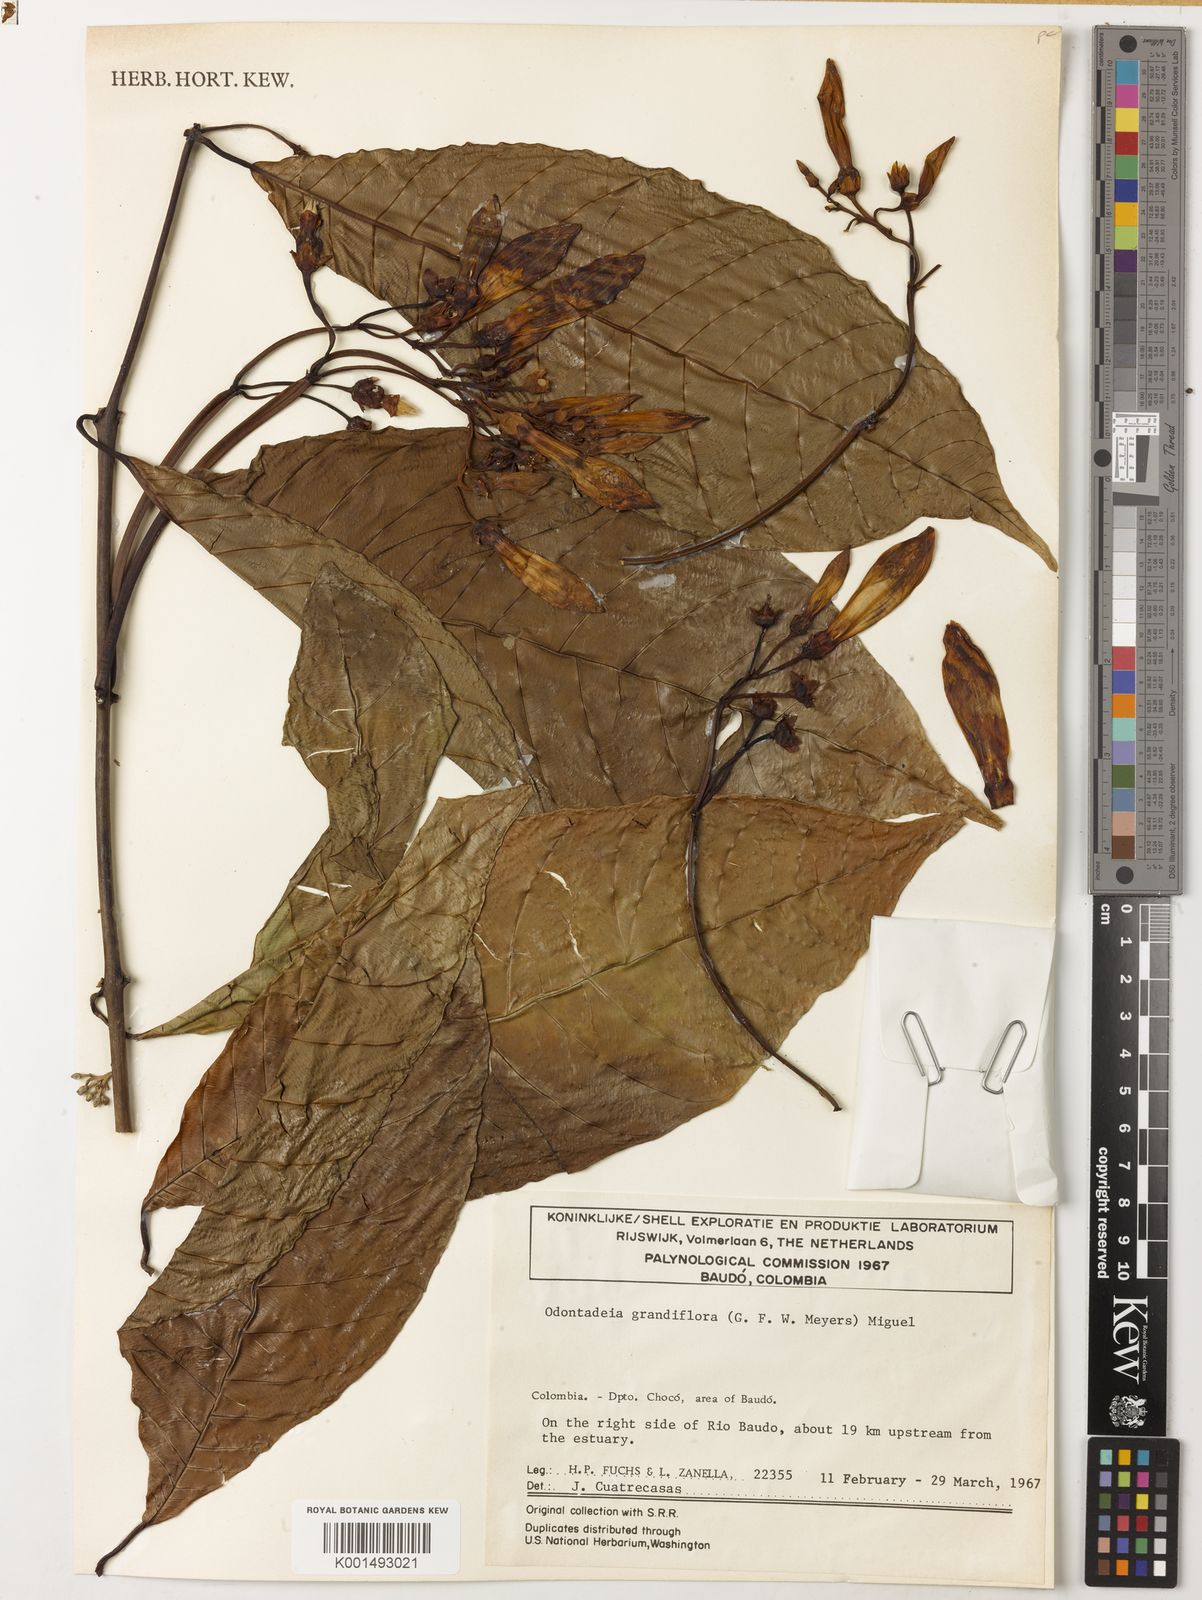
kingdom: Plantae
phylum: Tracheophyta
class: Magnoliopsida
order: Gentianales
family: Apocynaceae
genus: Odontadenia
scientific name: Odontadenia semidigyna
